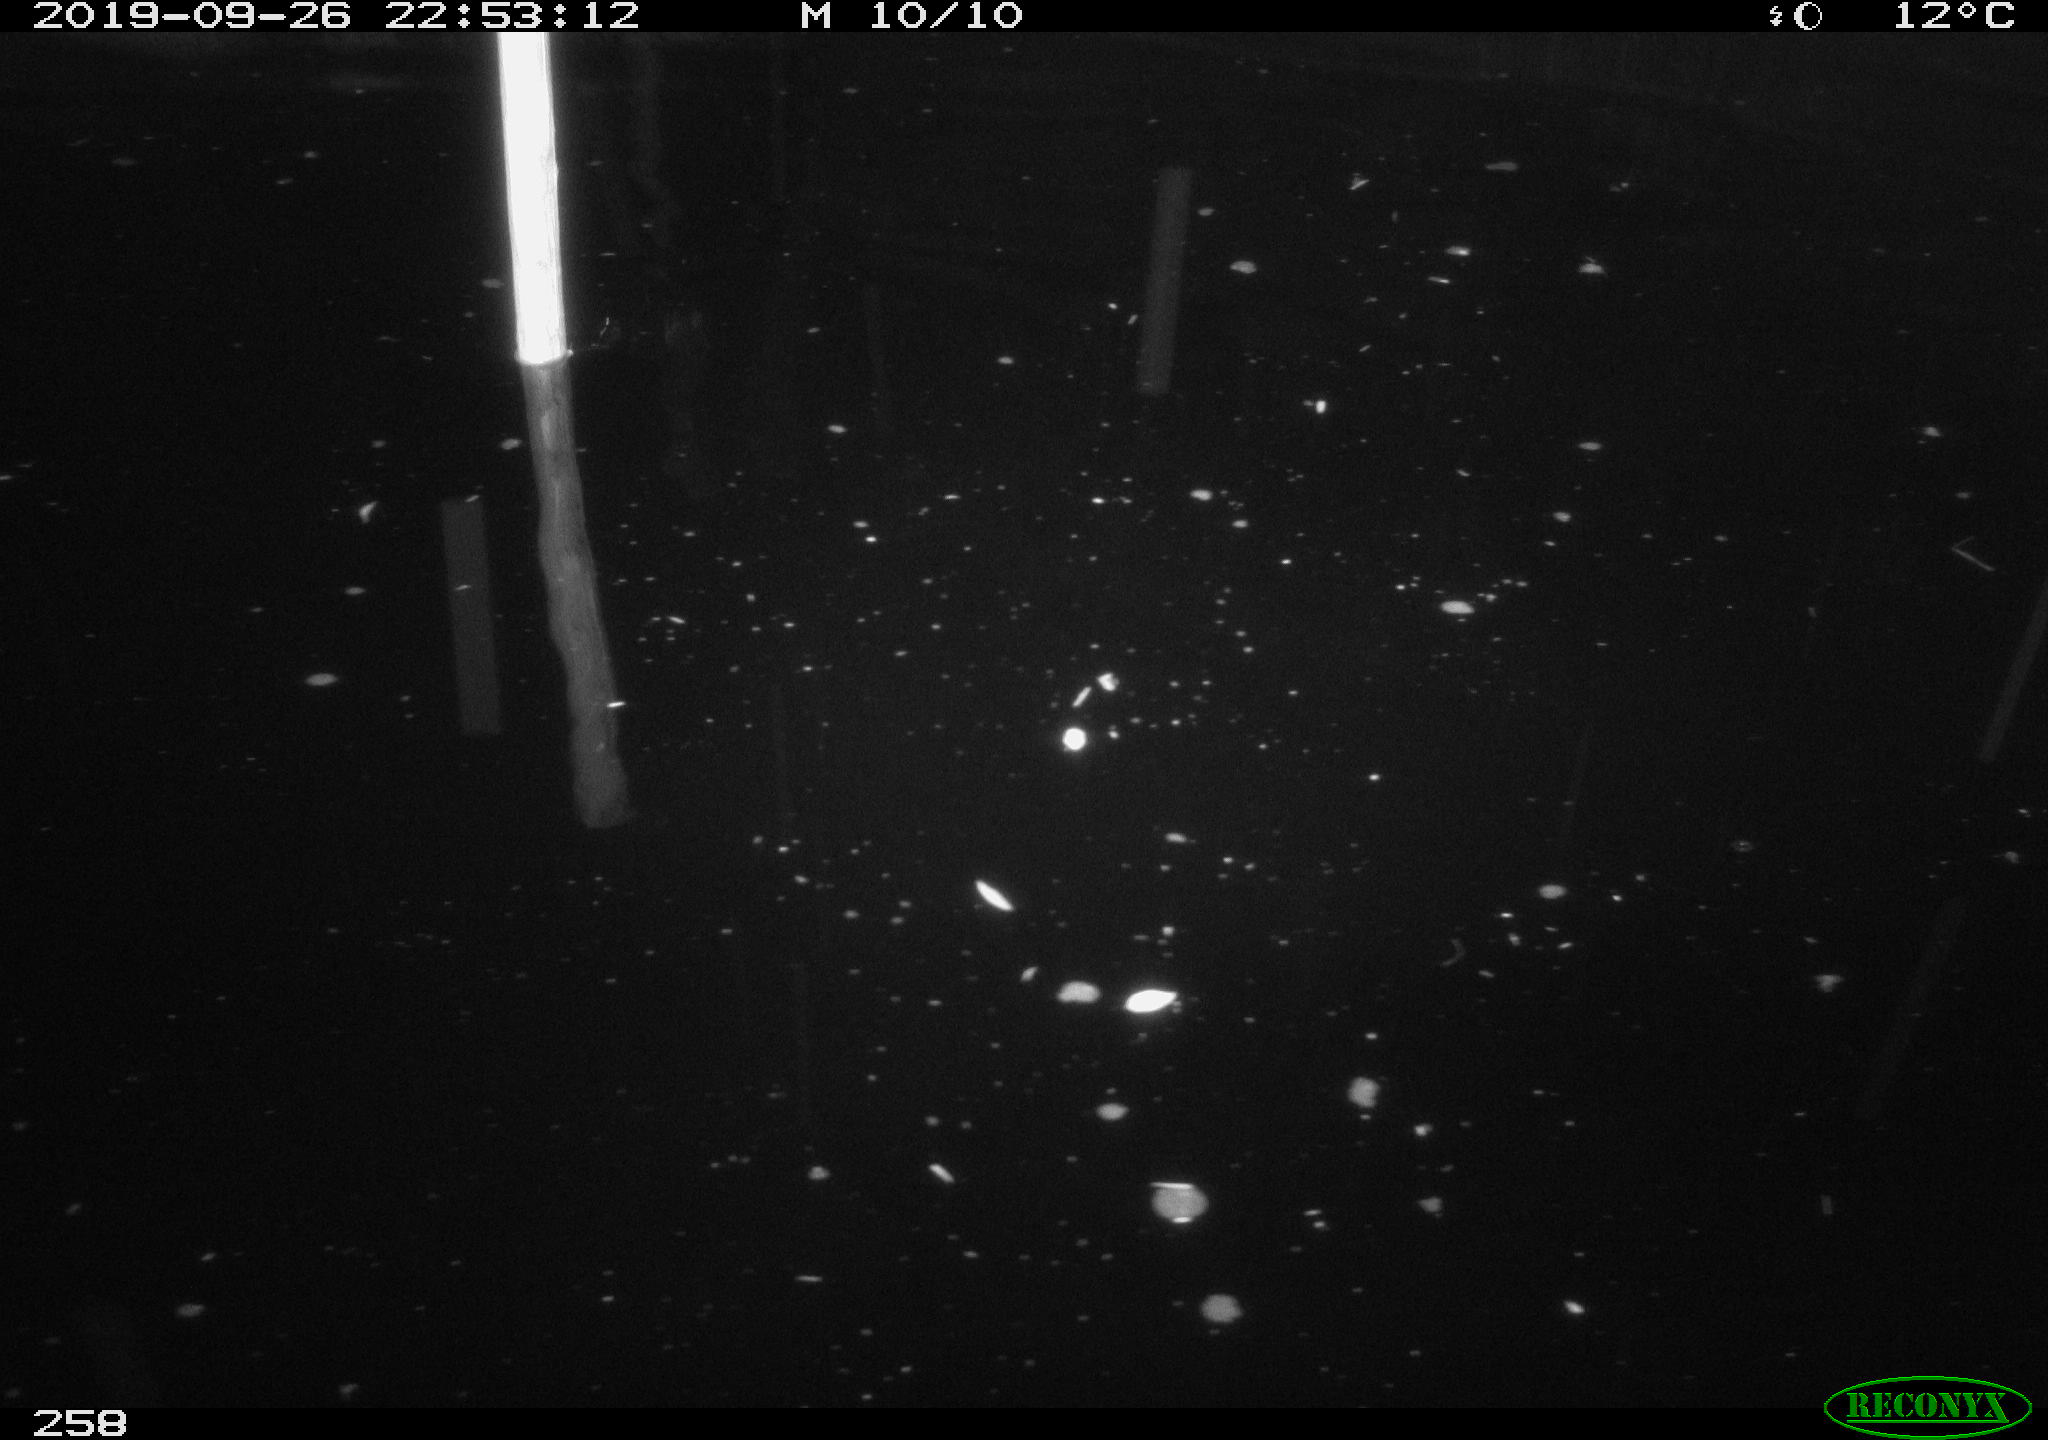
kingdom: Animalia
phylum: Chordata
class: Aves
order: Anseriformes
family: Anatidae
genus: Anas
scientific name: Anas platyrhynchos
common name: Mallard
